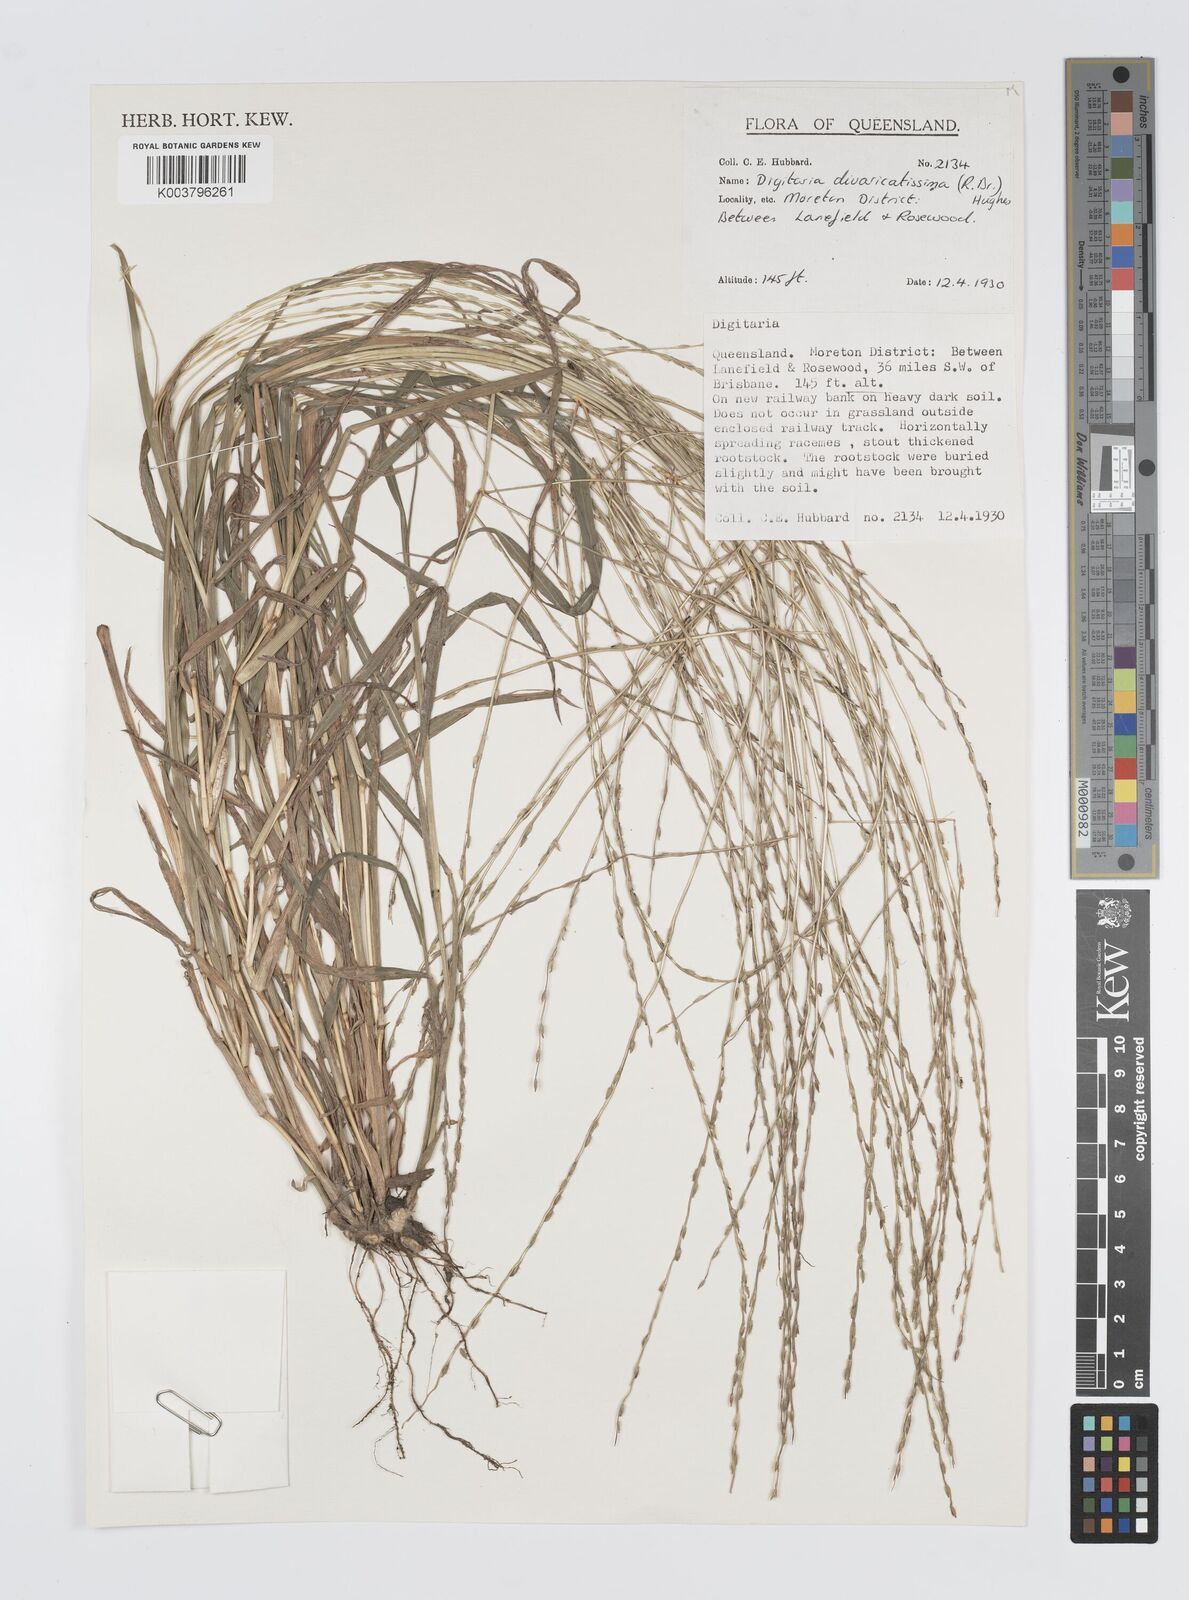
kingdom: Plantae
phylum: Tracheophyta
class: Liliopsida
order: Poales
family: Poaceae
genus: Digitaria
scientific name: Digitaria divaricatissima
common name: Crabgrass
